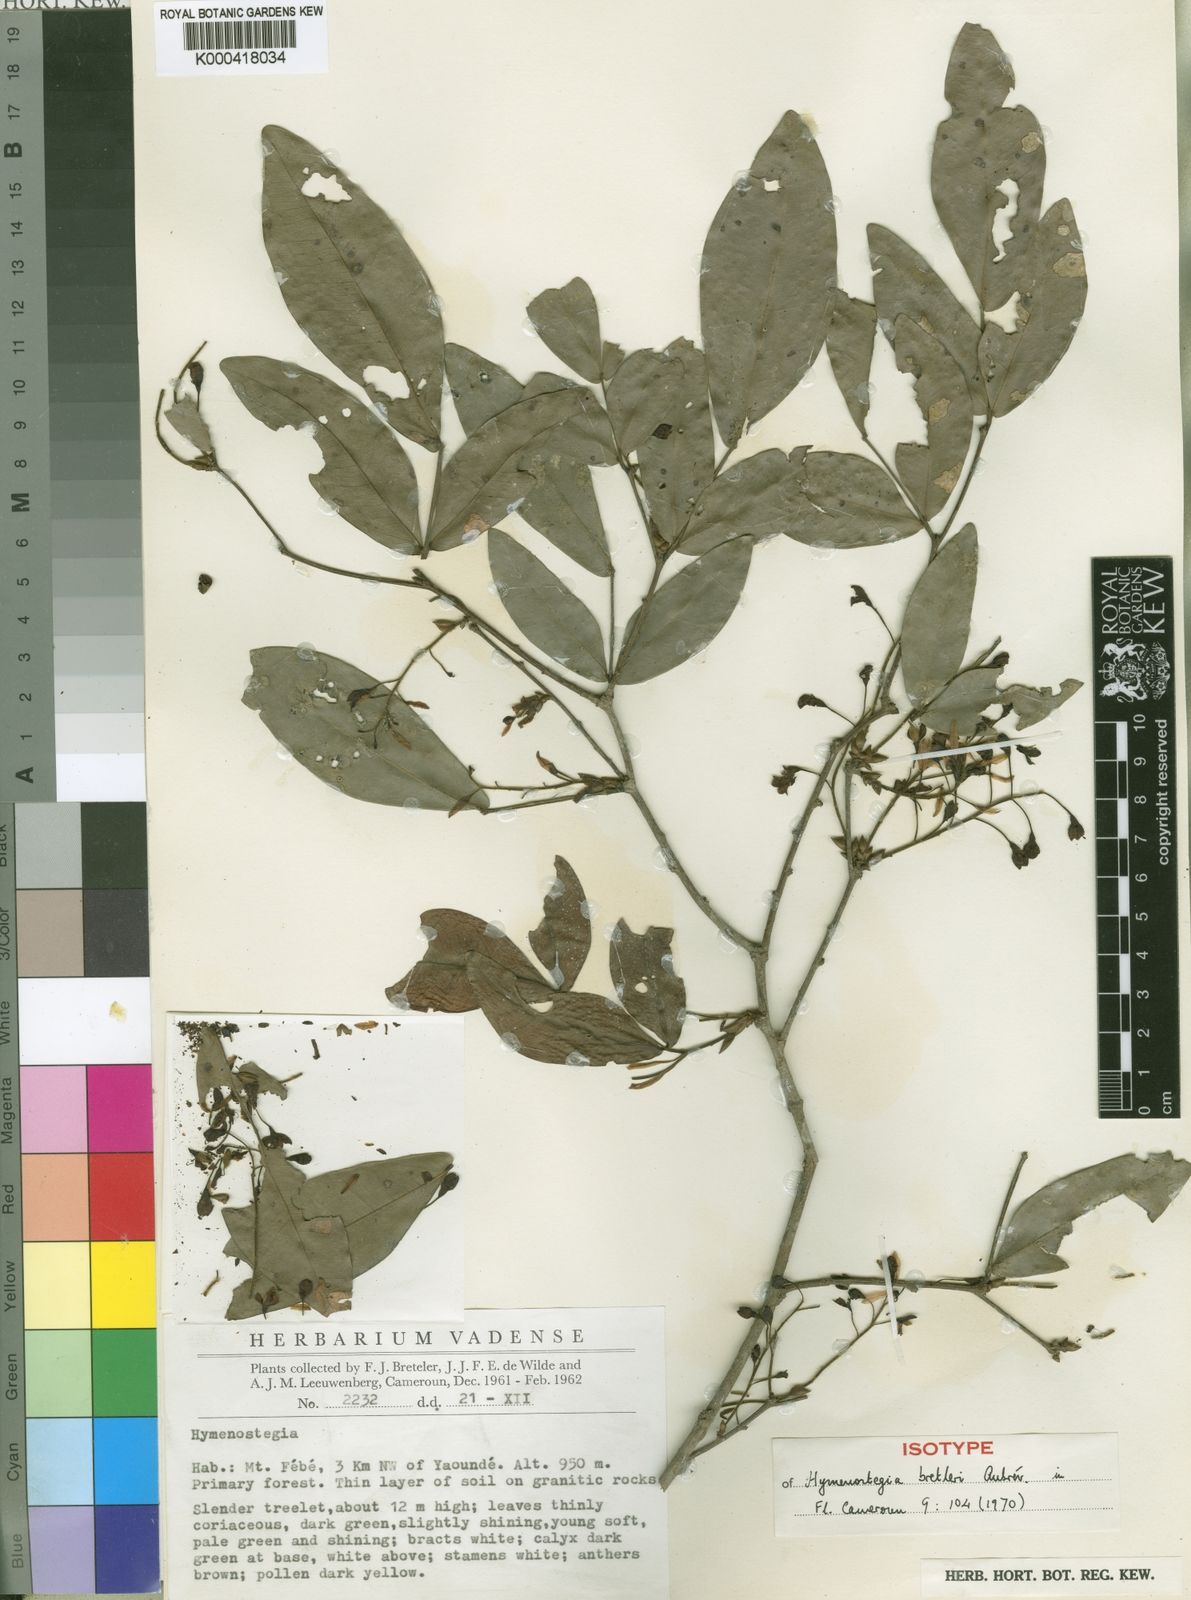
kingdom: Plantae
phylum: Tracheophyta
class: Magnoliopsida
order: Fabales
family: Fabaceae
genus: Hymenostegia
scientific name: Hymenostegia
